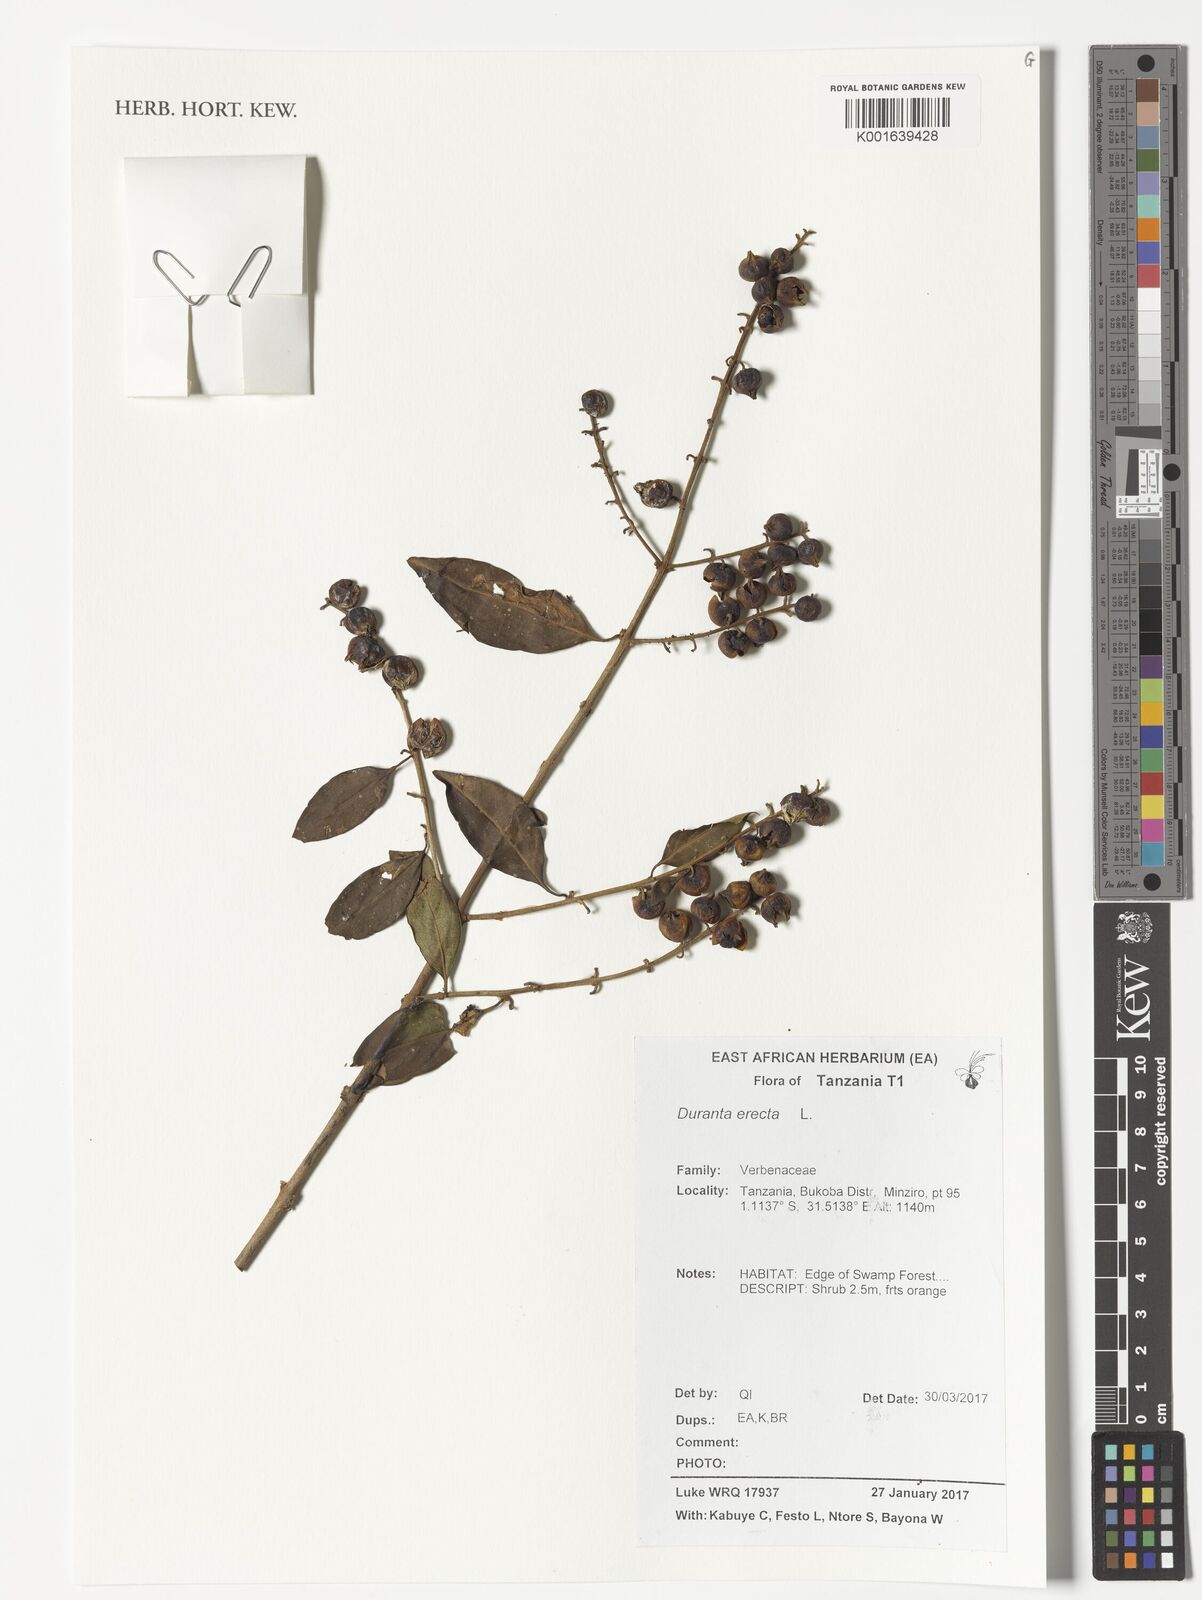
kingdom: Plantae
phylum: Tracheophyta
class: Magnoliopsida
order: Lamiales
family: Verbenaceae
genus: Duranta
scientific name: Duranta erecta
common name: Golden dewdrops
